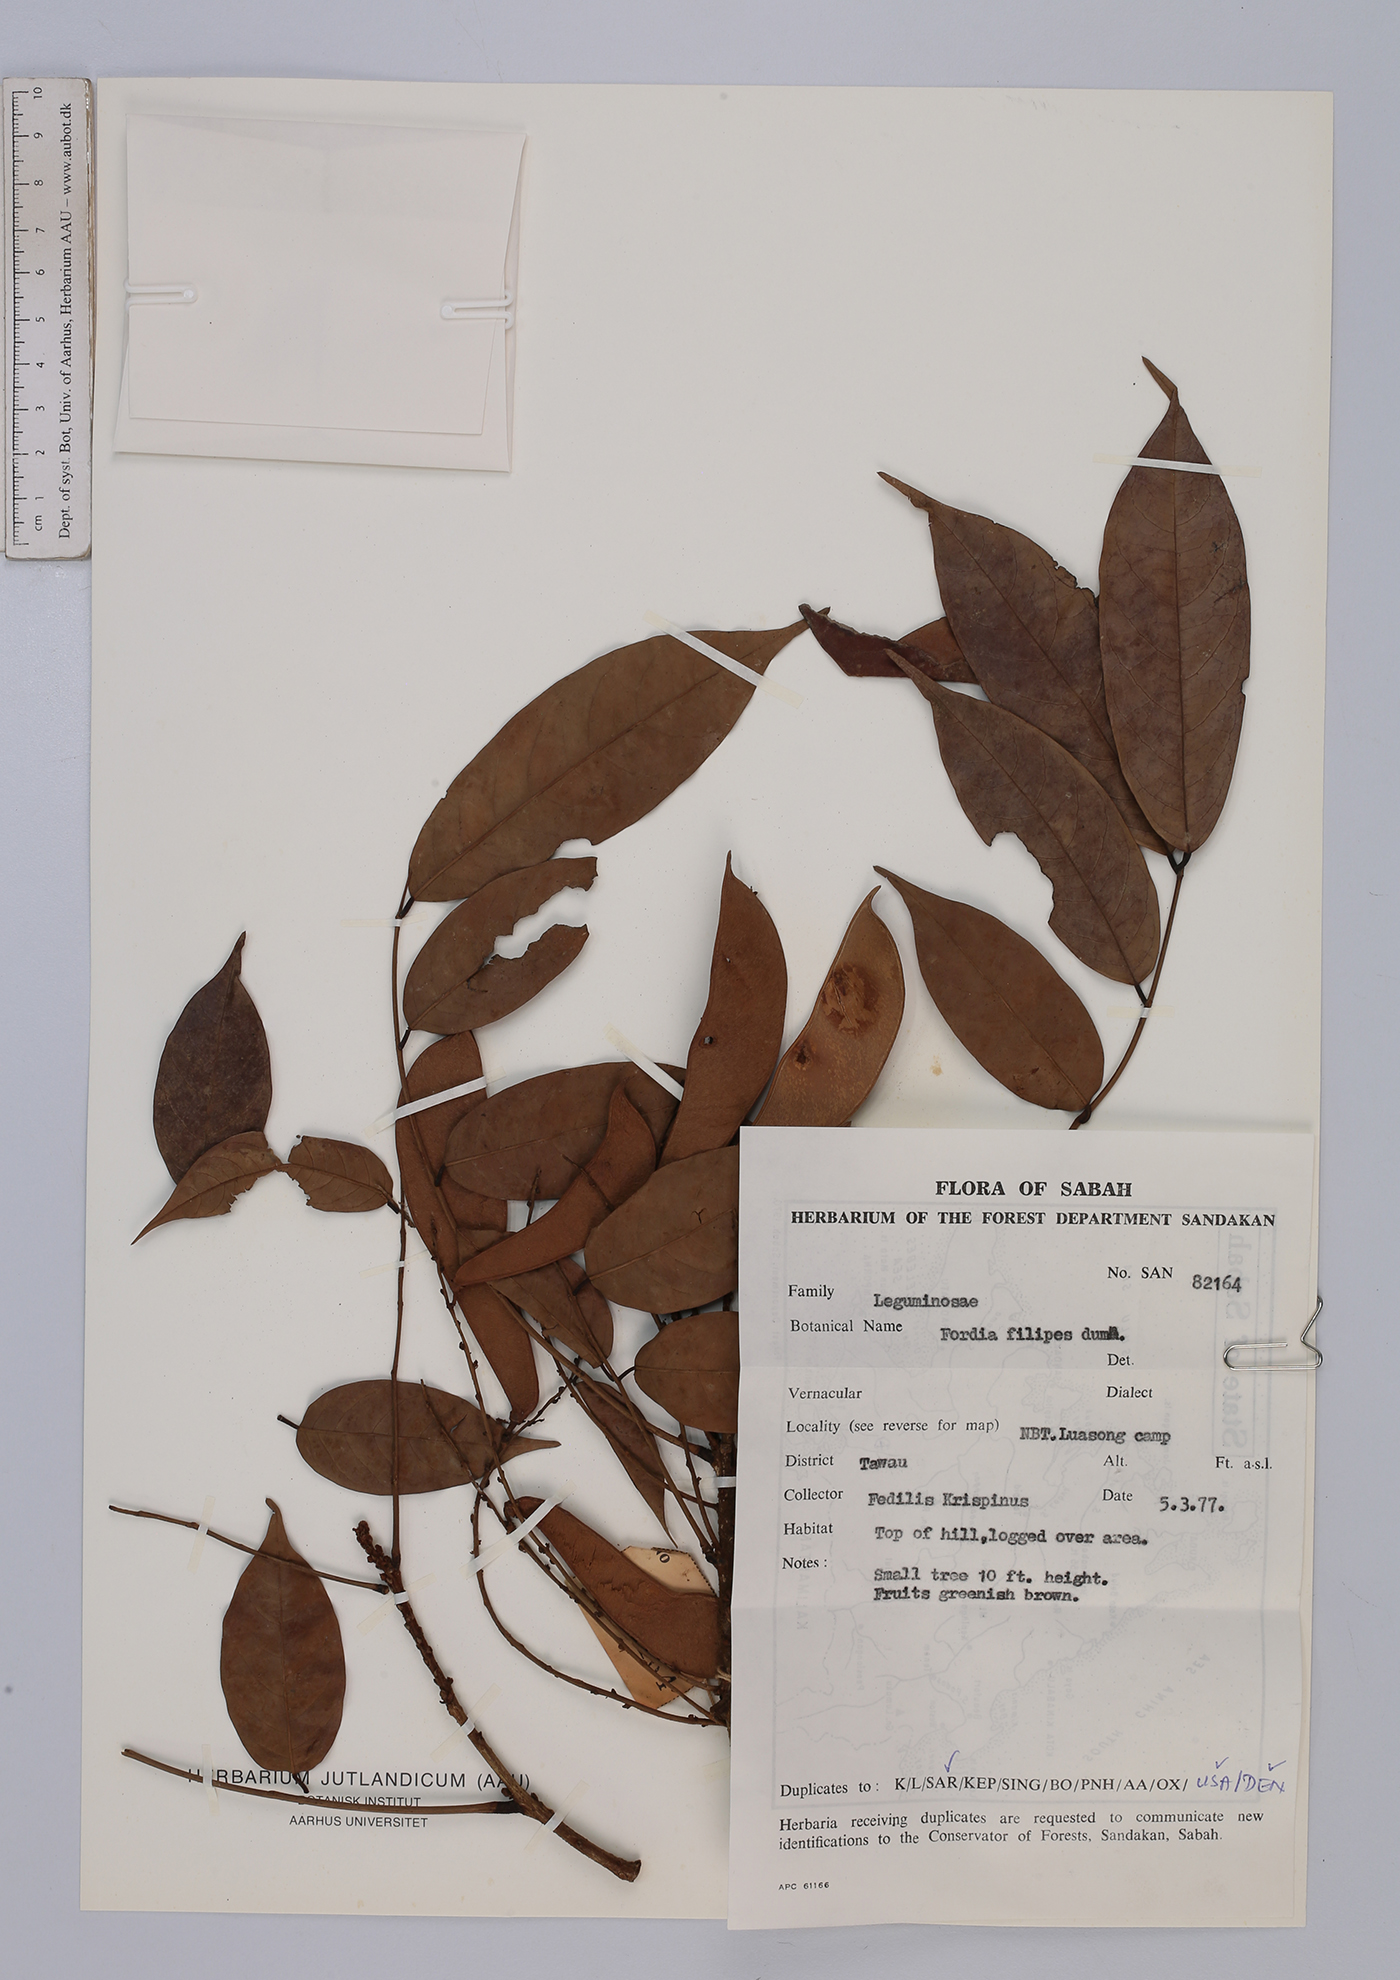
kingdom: Plantae
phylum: Tracheophyta
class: Magnoliopsida
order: Fabales
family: Fabaceae
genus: Fordia
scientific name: Fordia splendidissima
